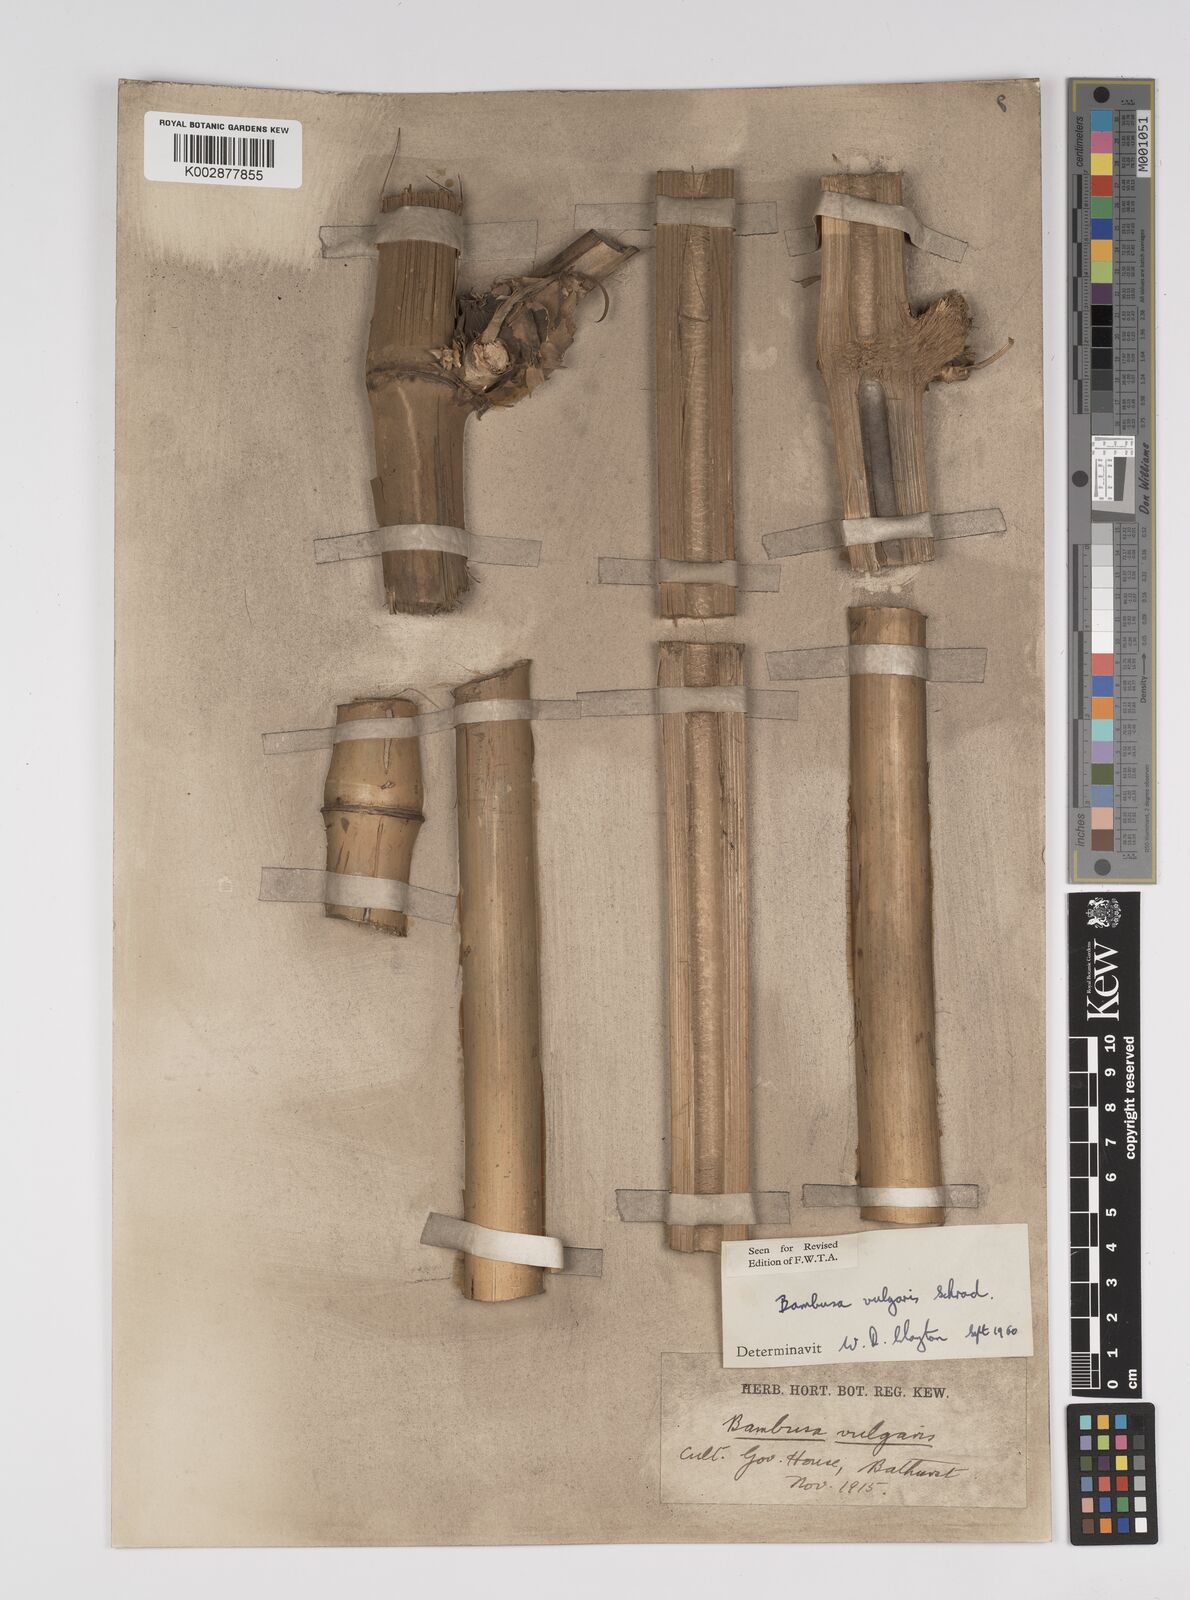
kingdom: Plantae
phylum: Tracheophyta
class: Liliopsida
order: Poales
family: Poaceae
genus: Bambusa
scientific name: Bambusa vulgaris
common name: Common bamboo
